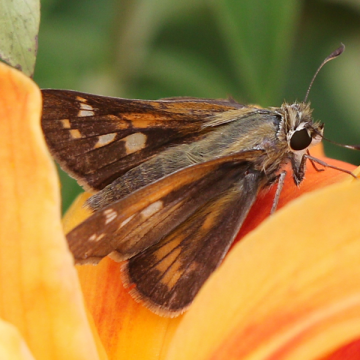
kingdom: Animalia
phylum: Arthropoda
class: Insecta
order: Lepidoptera
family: Hesperiidae
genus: Atalopedes
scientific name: Atalopedes campestris
